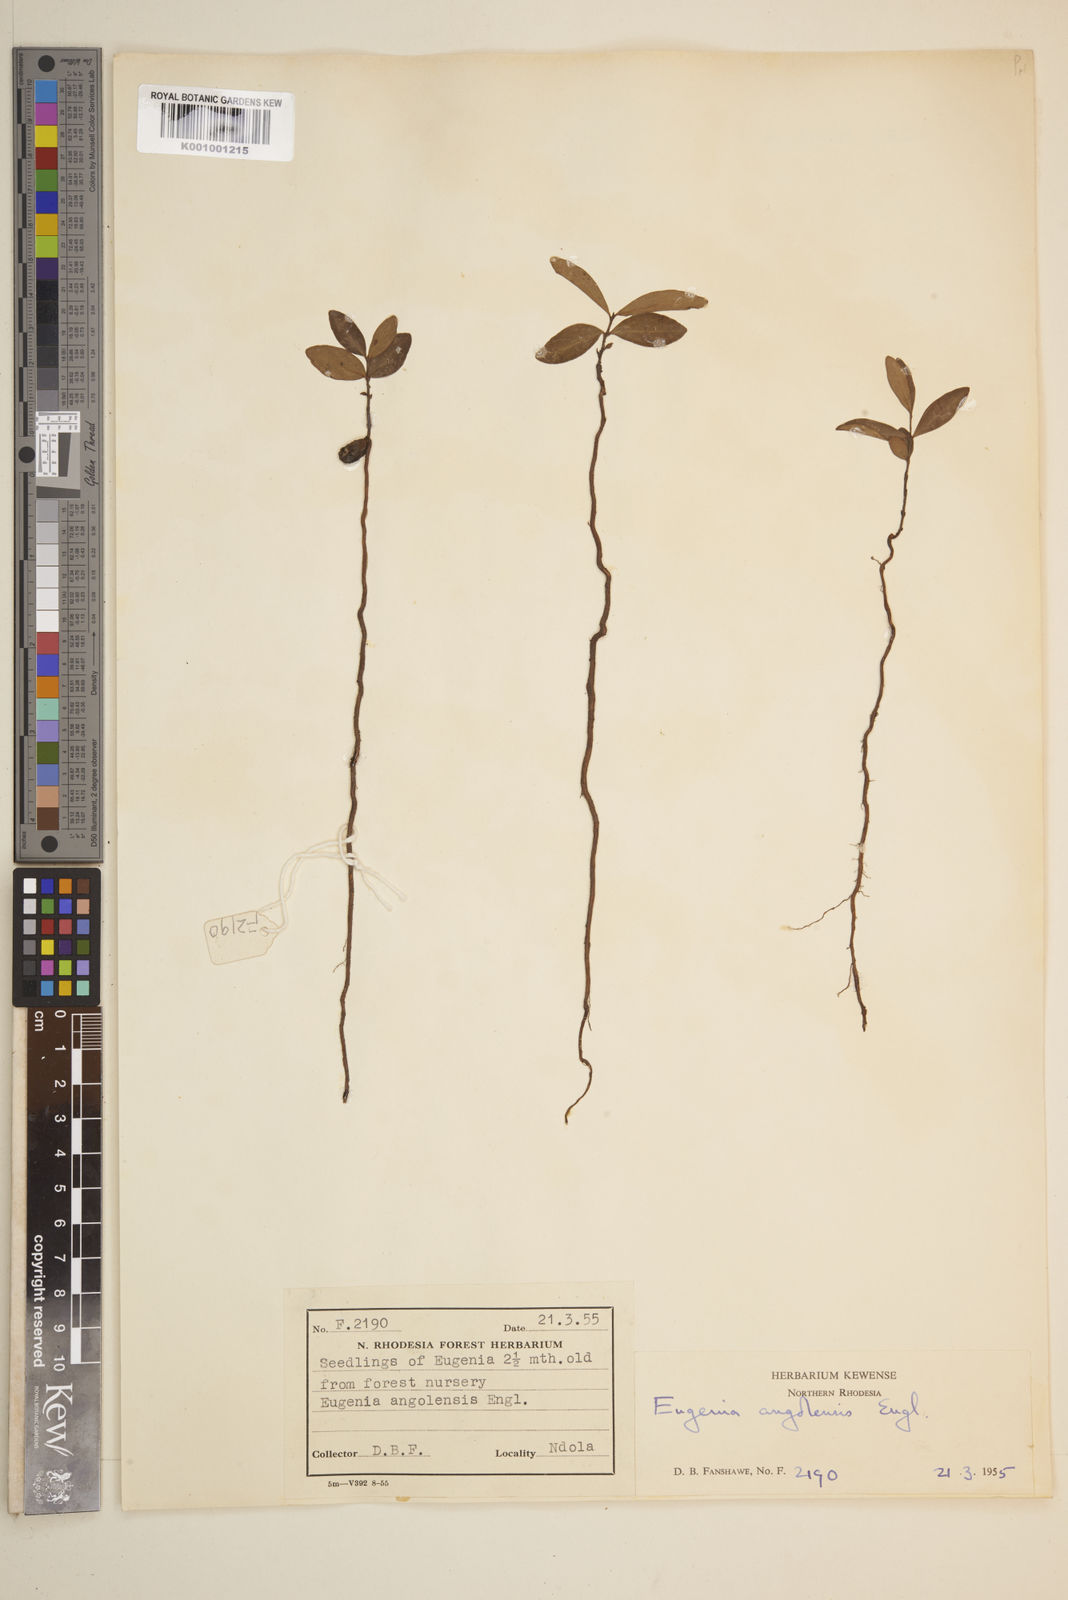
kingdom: Plantae
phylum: Tracheophyta
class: Magnoliopsida
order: Myrtales
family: Myrtaceae
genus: Eugenia
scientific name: Eugenia malangensis
